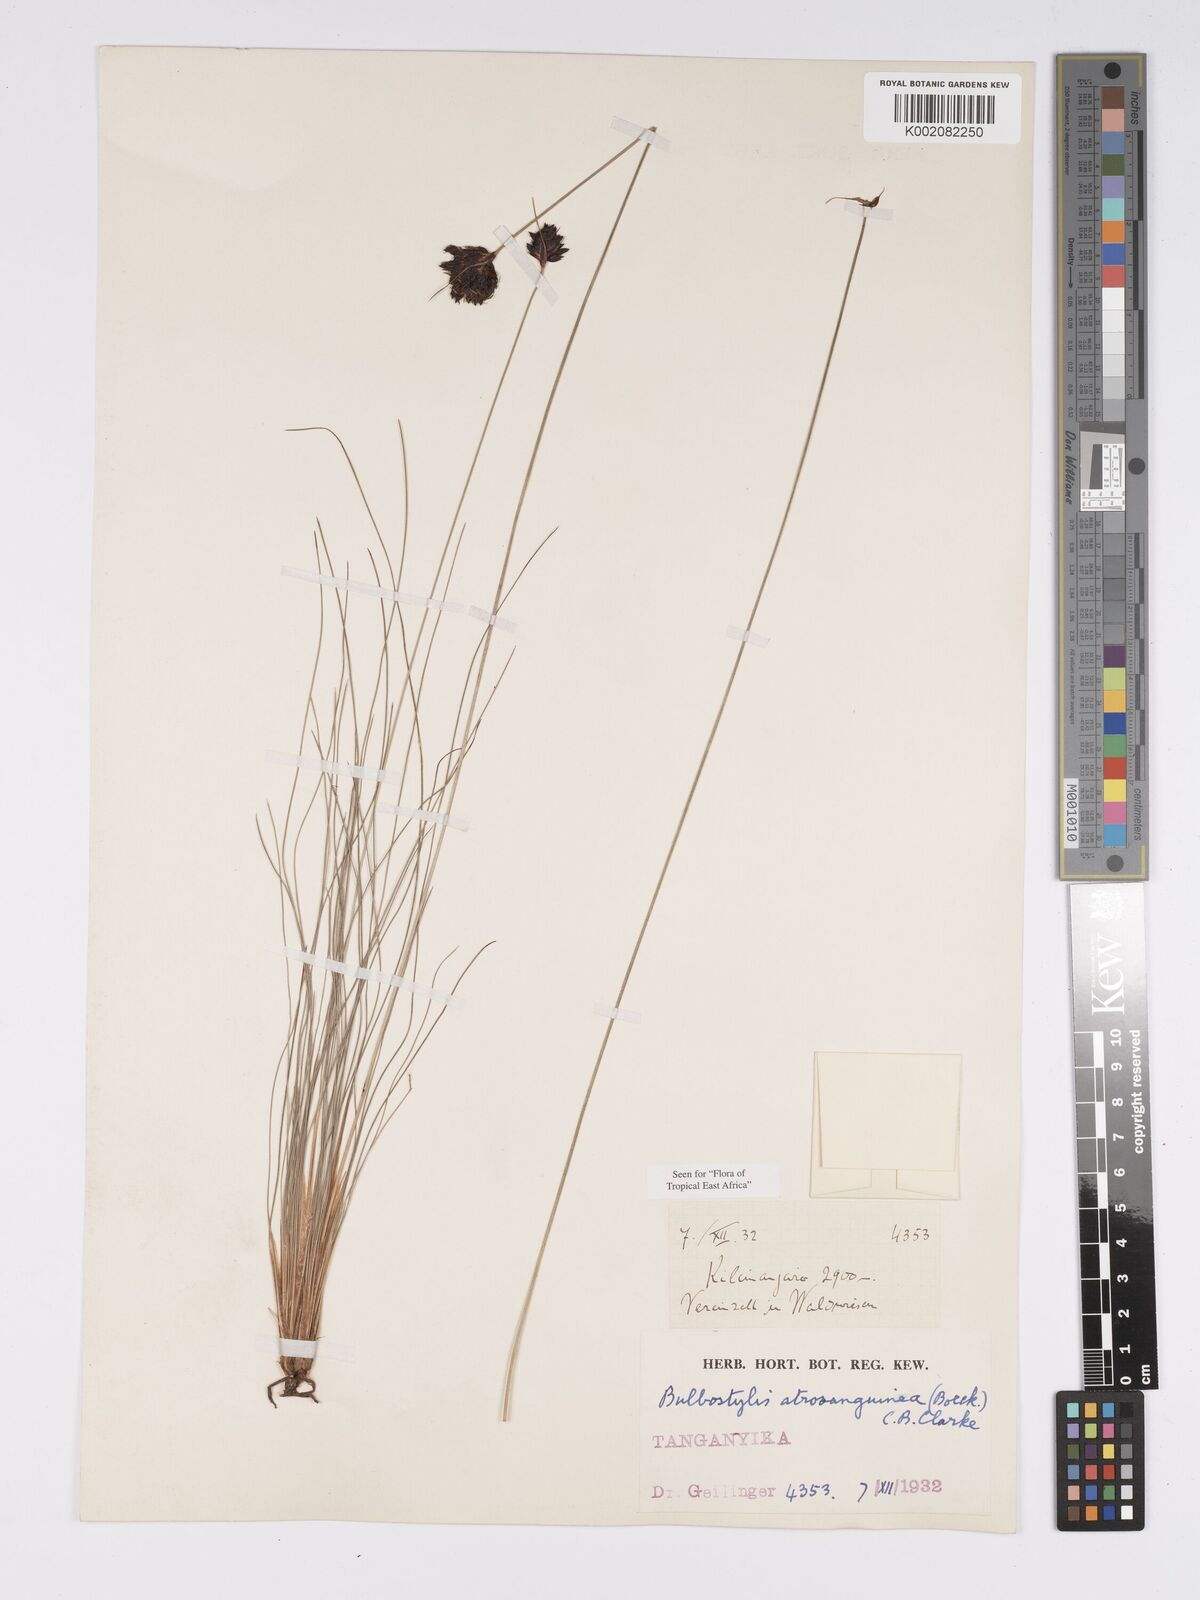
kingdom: Plantae
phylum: Tracheophyta
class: Liliopsida
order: Poales
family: Cyperaceae
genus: Bulbostylis
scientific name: Bulbostylis atrosanguinea
